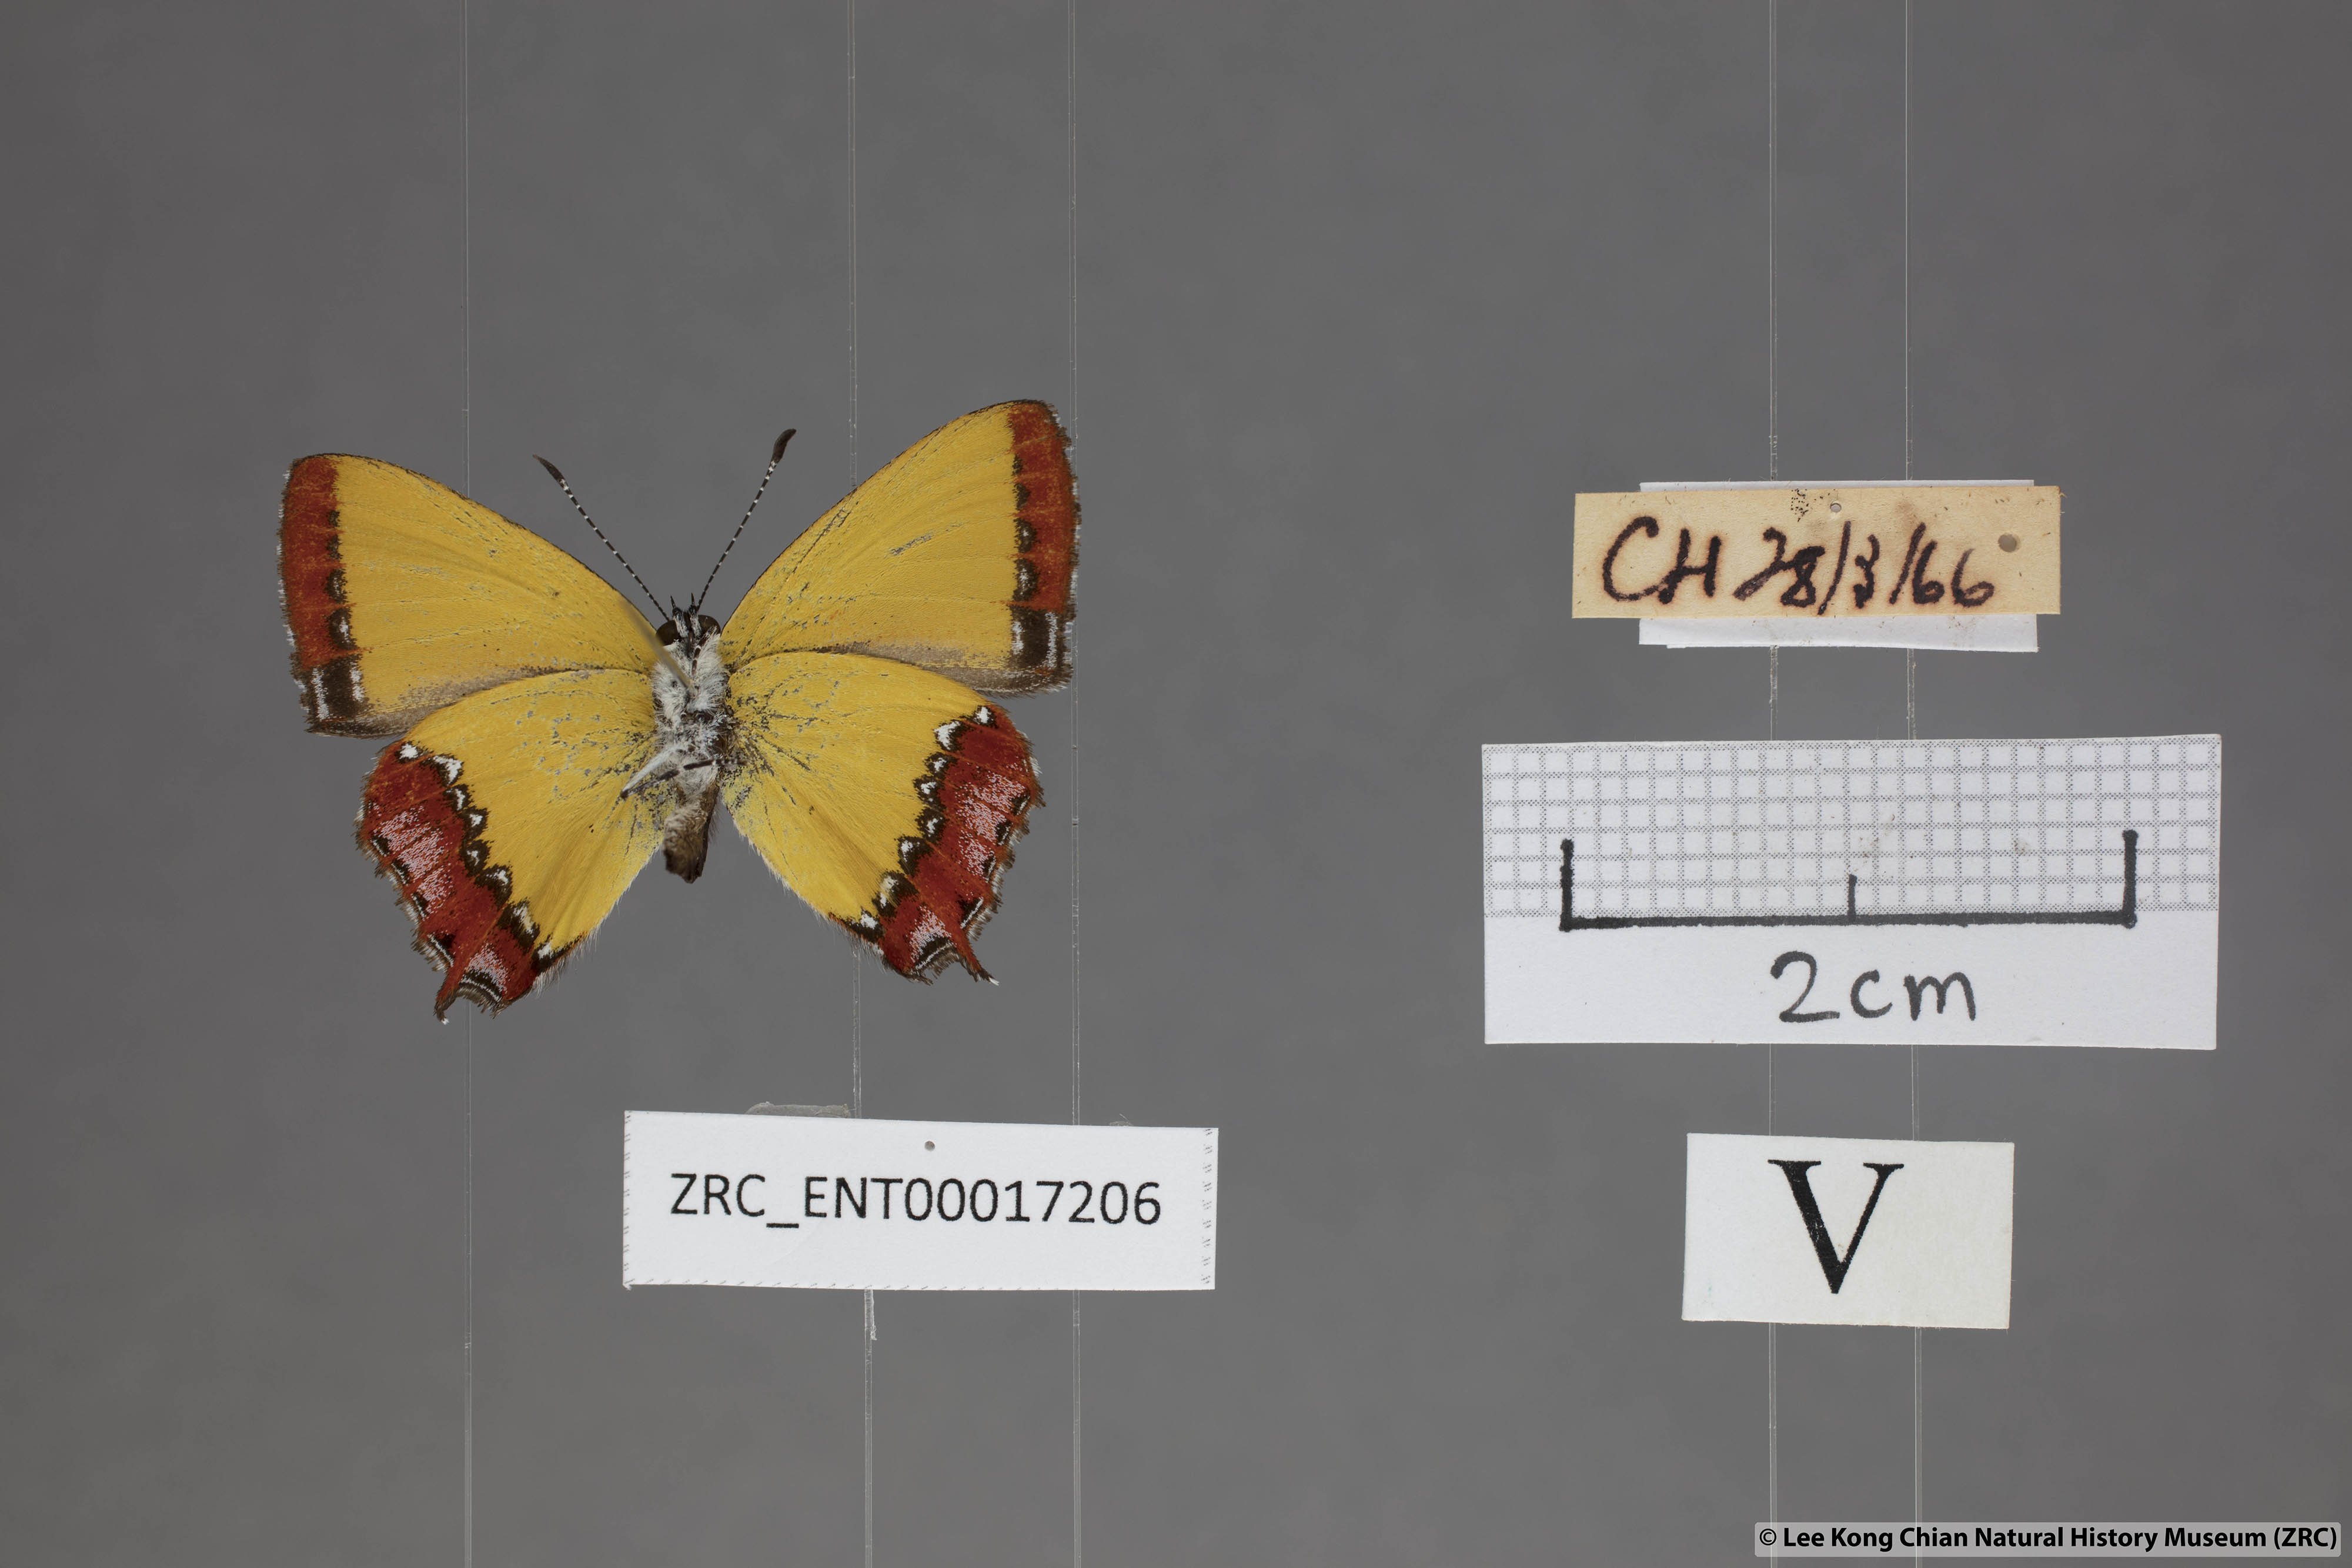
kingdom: Animalia
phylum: Arthropoda
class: Insecta
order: Lepidoptera
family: Lycaenidae
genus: Heliophorus
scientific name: Heliophorus ila
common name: Restricted purple sapphire
